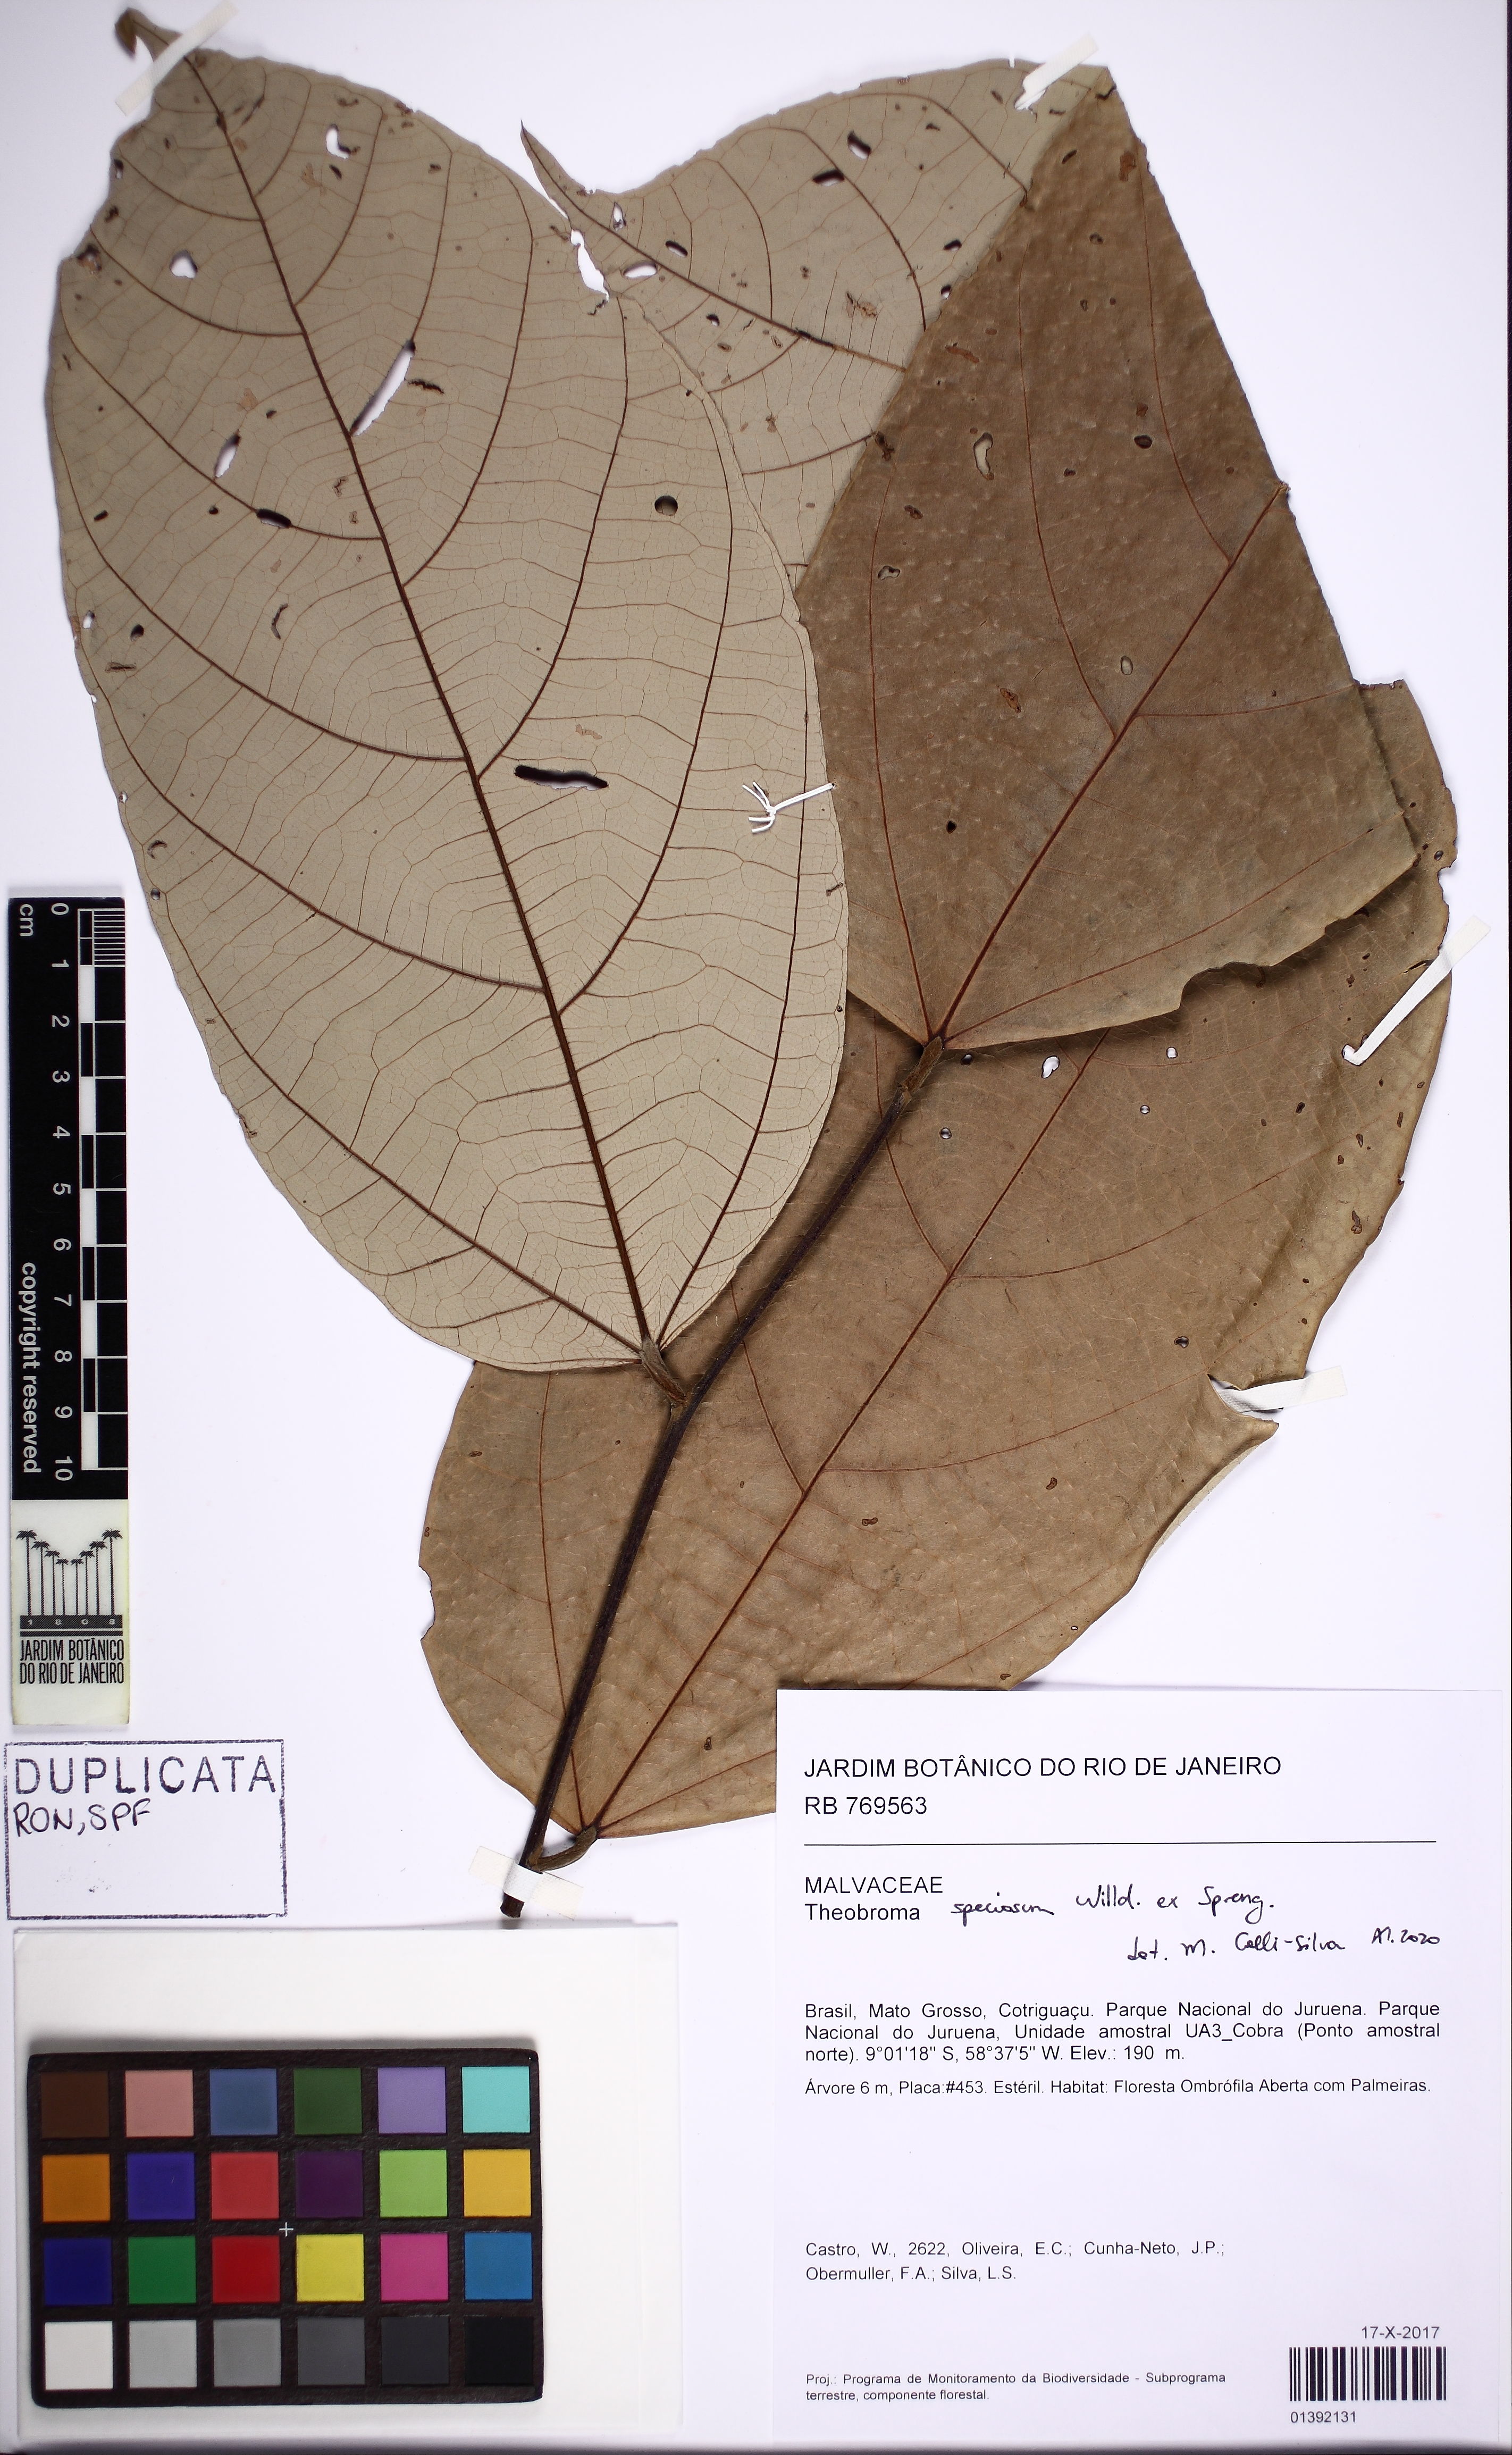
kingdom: Plantae
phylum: Tracheophyta
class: Magnoliopsida
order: Malvales
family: Malvaceae
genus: Theobroma
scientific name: Theobroma speciosum
